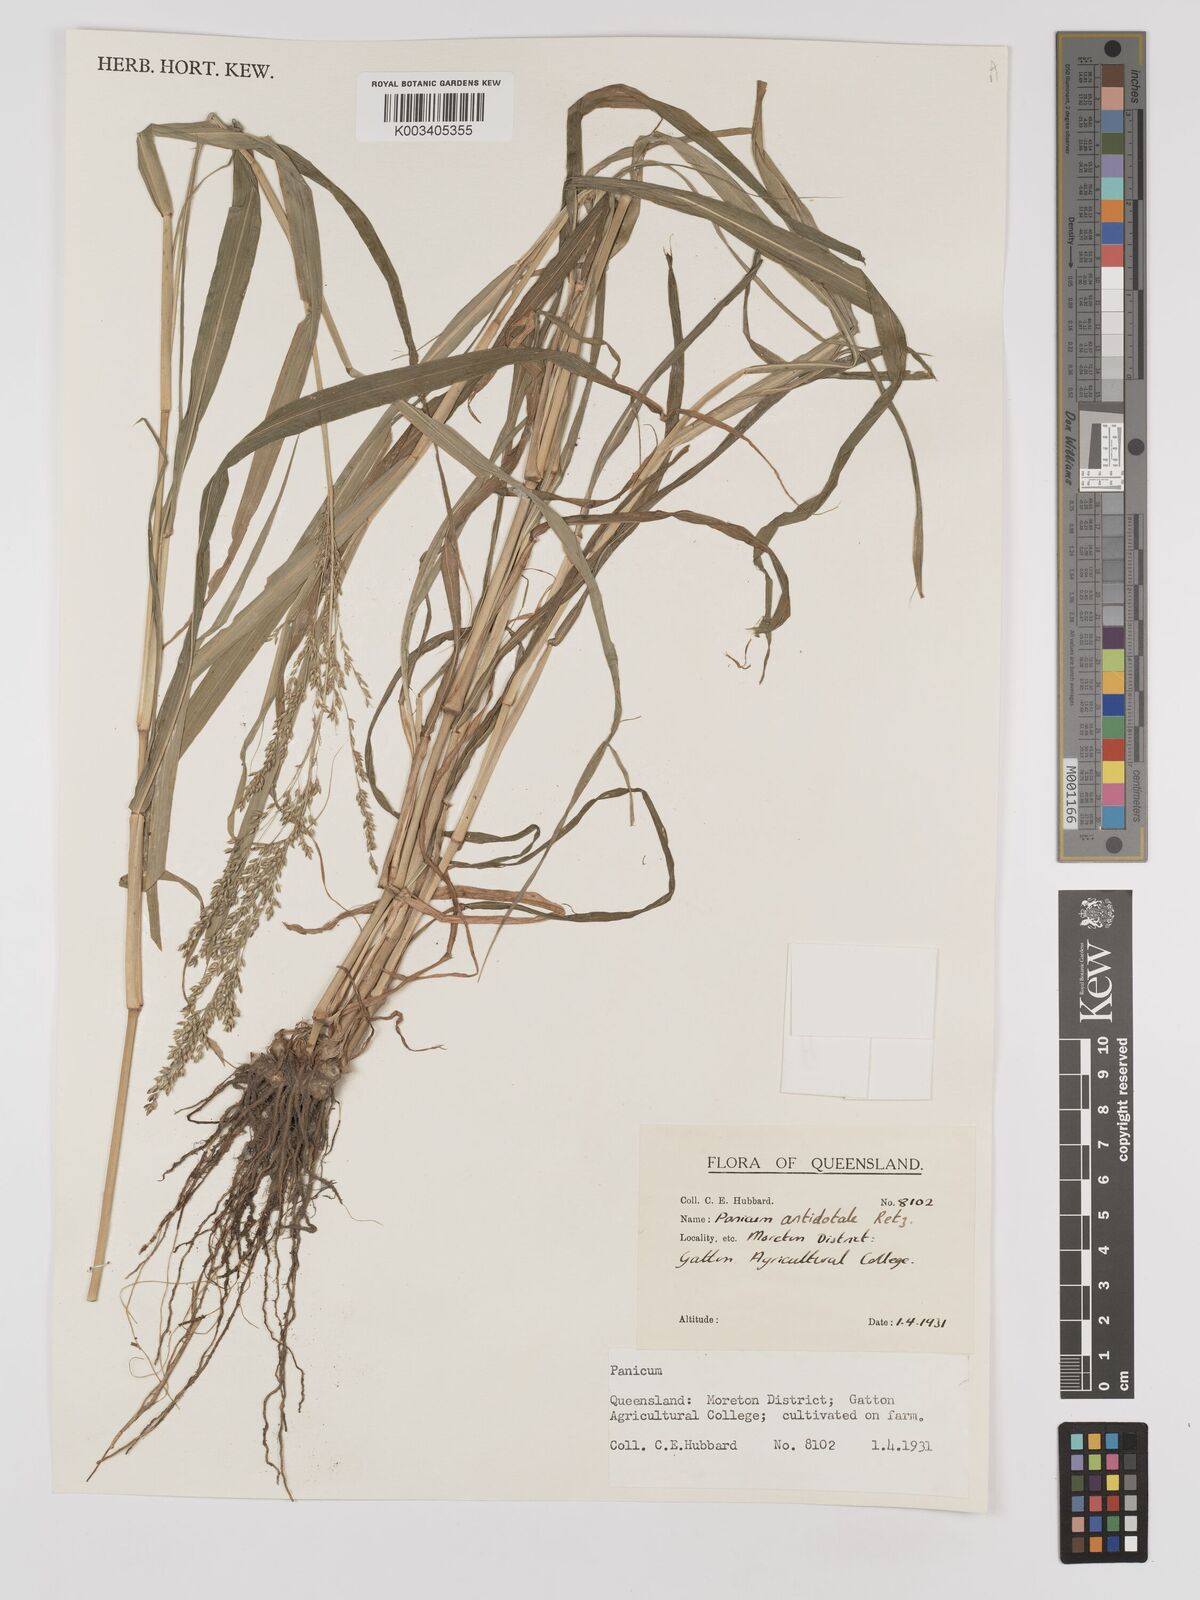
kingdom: Plantae
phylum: Tracheophyta
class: Liliopsida
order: Poales
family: Poaceae
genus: Panicum
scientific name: Panicum antidotale
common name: Blue panicum
